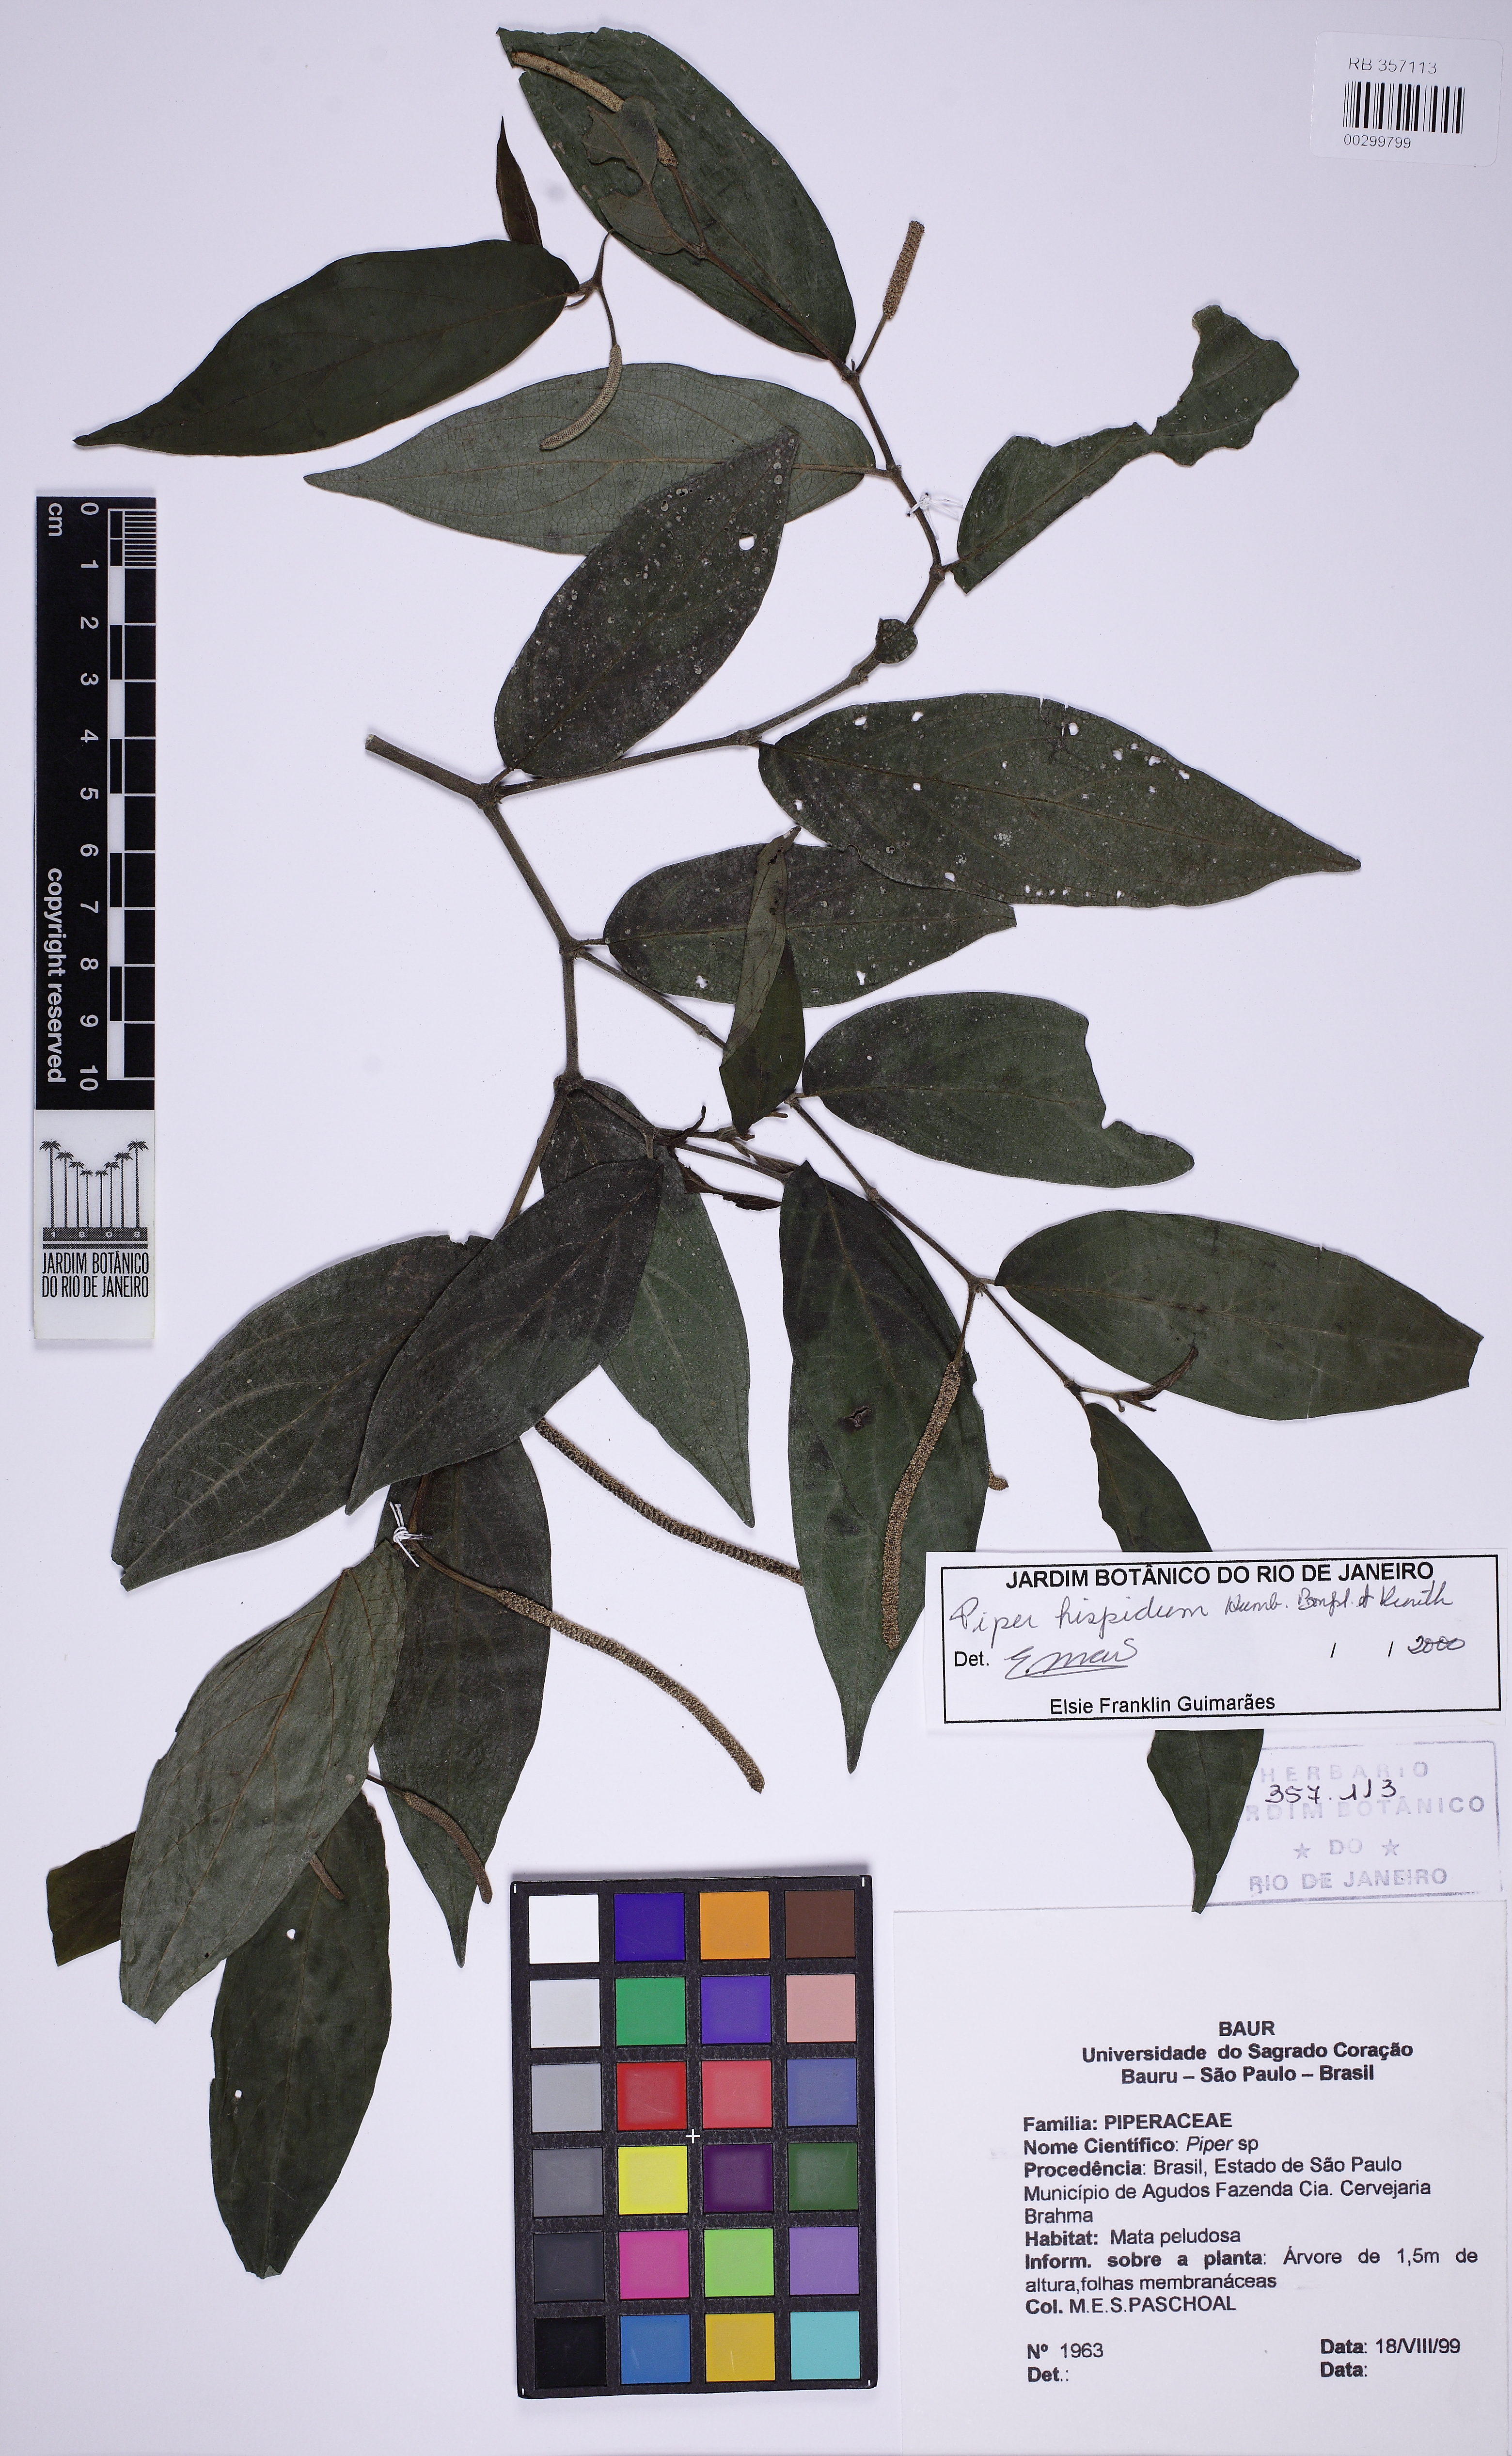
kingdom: Plantae
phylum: Tracheophyta
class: Magnoliopsida
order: Piperales
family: Piperaceae
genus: Piper
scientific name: Piper hispidum
